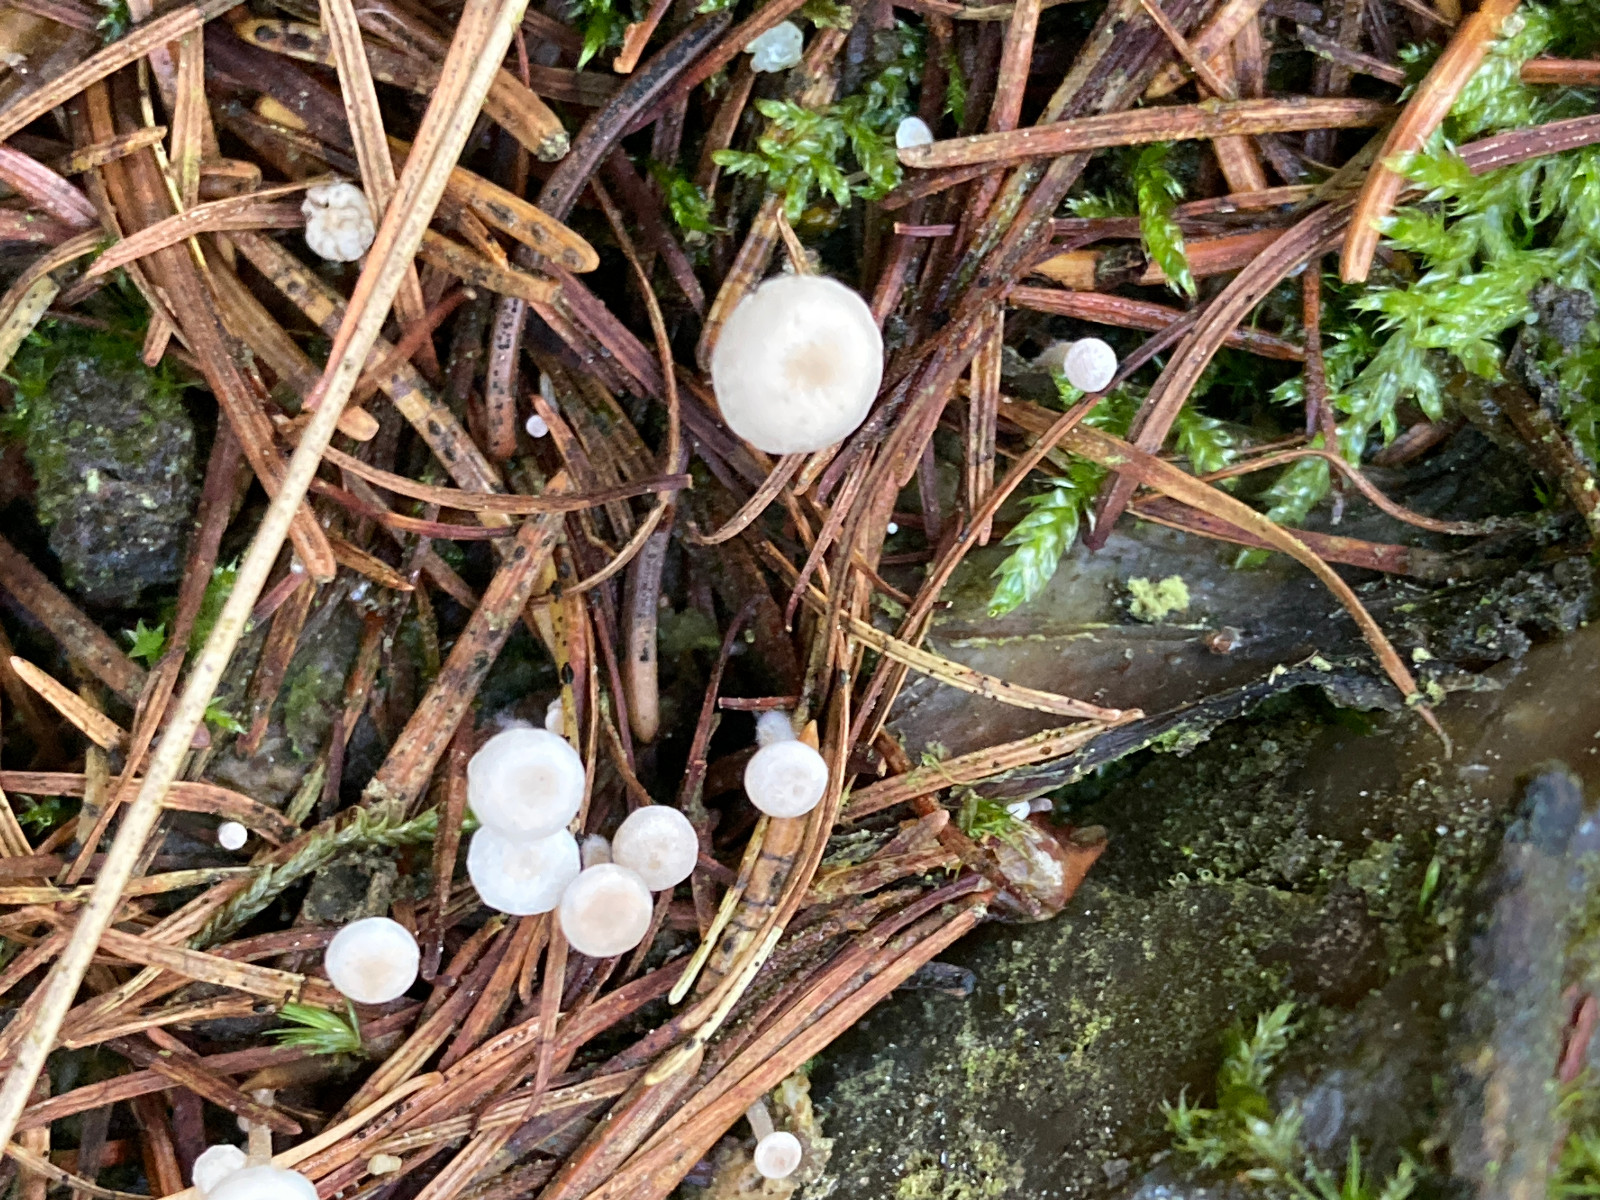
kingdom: Fungi
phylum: Basidiomycota
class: Agaricomycetes
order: Agaricales
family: Tricholomataceae
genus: Collybia
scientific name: Collybia cirrhata
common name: silke-lighat
